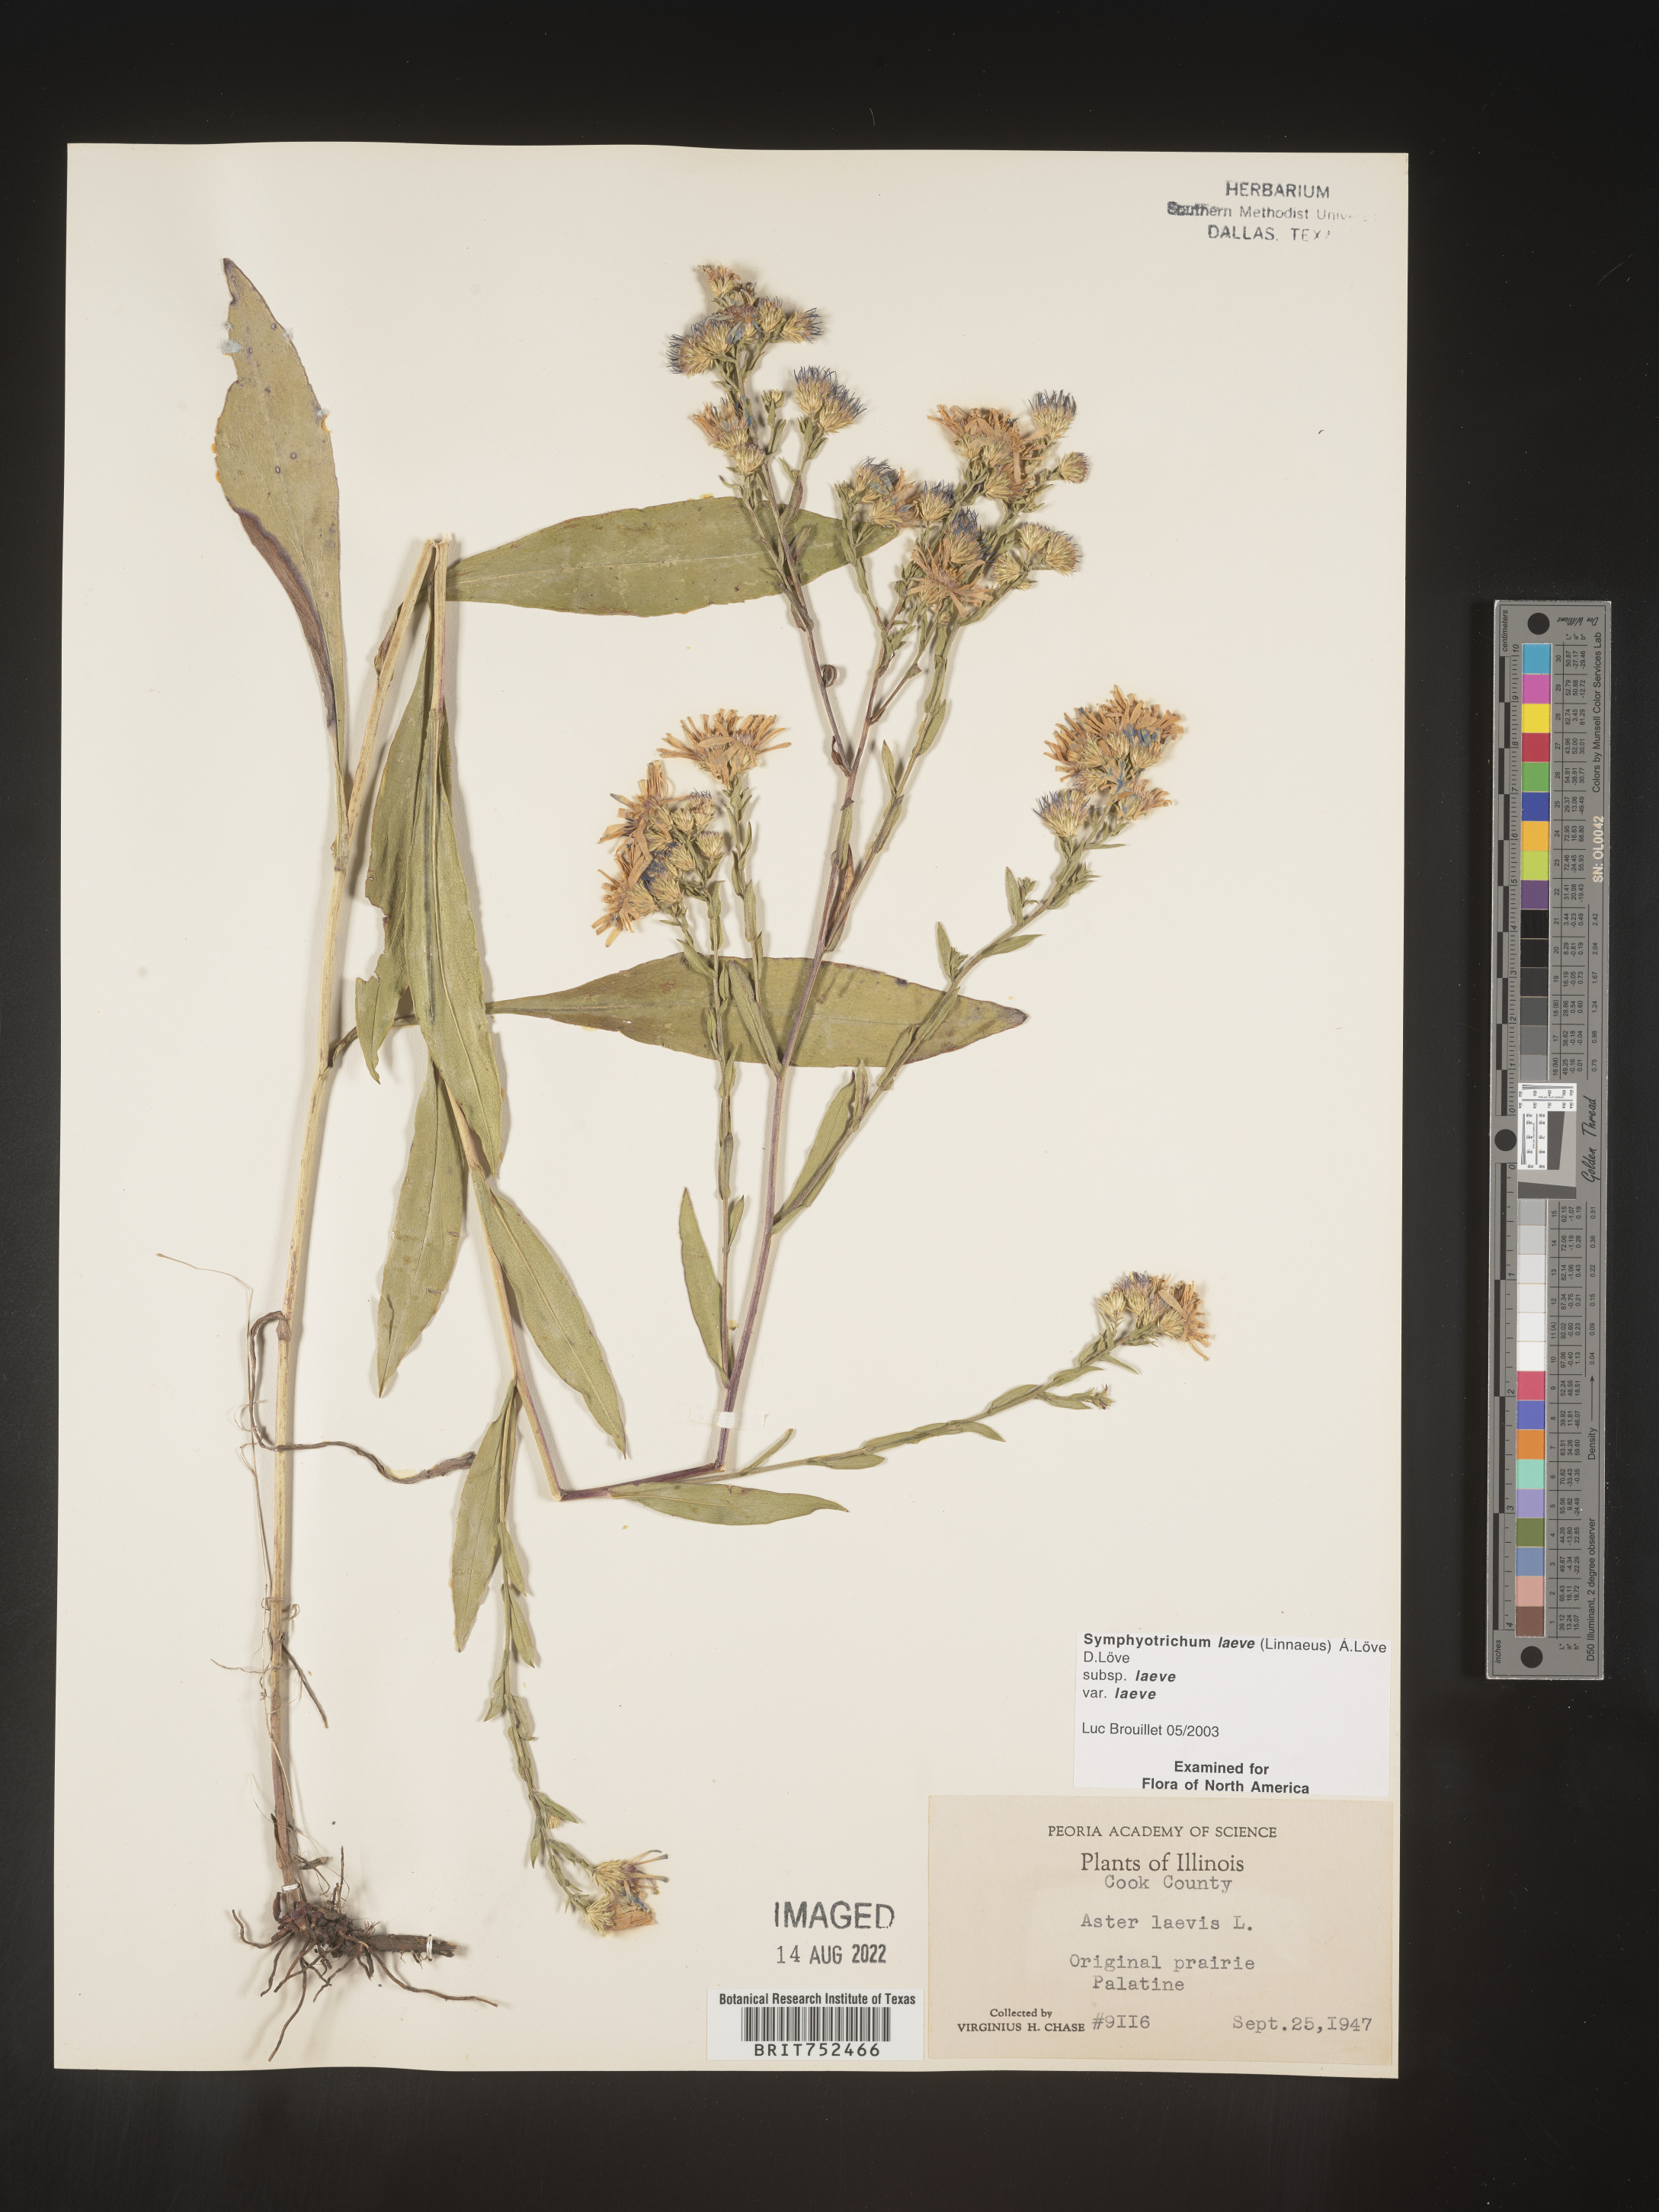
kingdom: Plantae
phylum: Tracheophyta
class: Magnoliopsida
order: Asterales
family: Asteraceae
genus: Symphyotrichum
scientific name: Symphyotrichum laeve
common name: Glaucous aster
